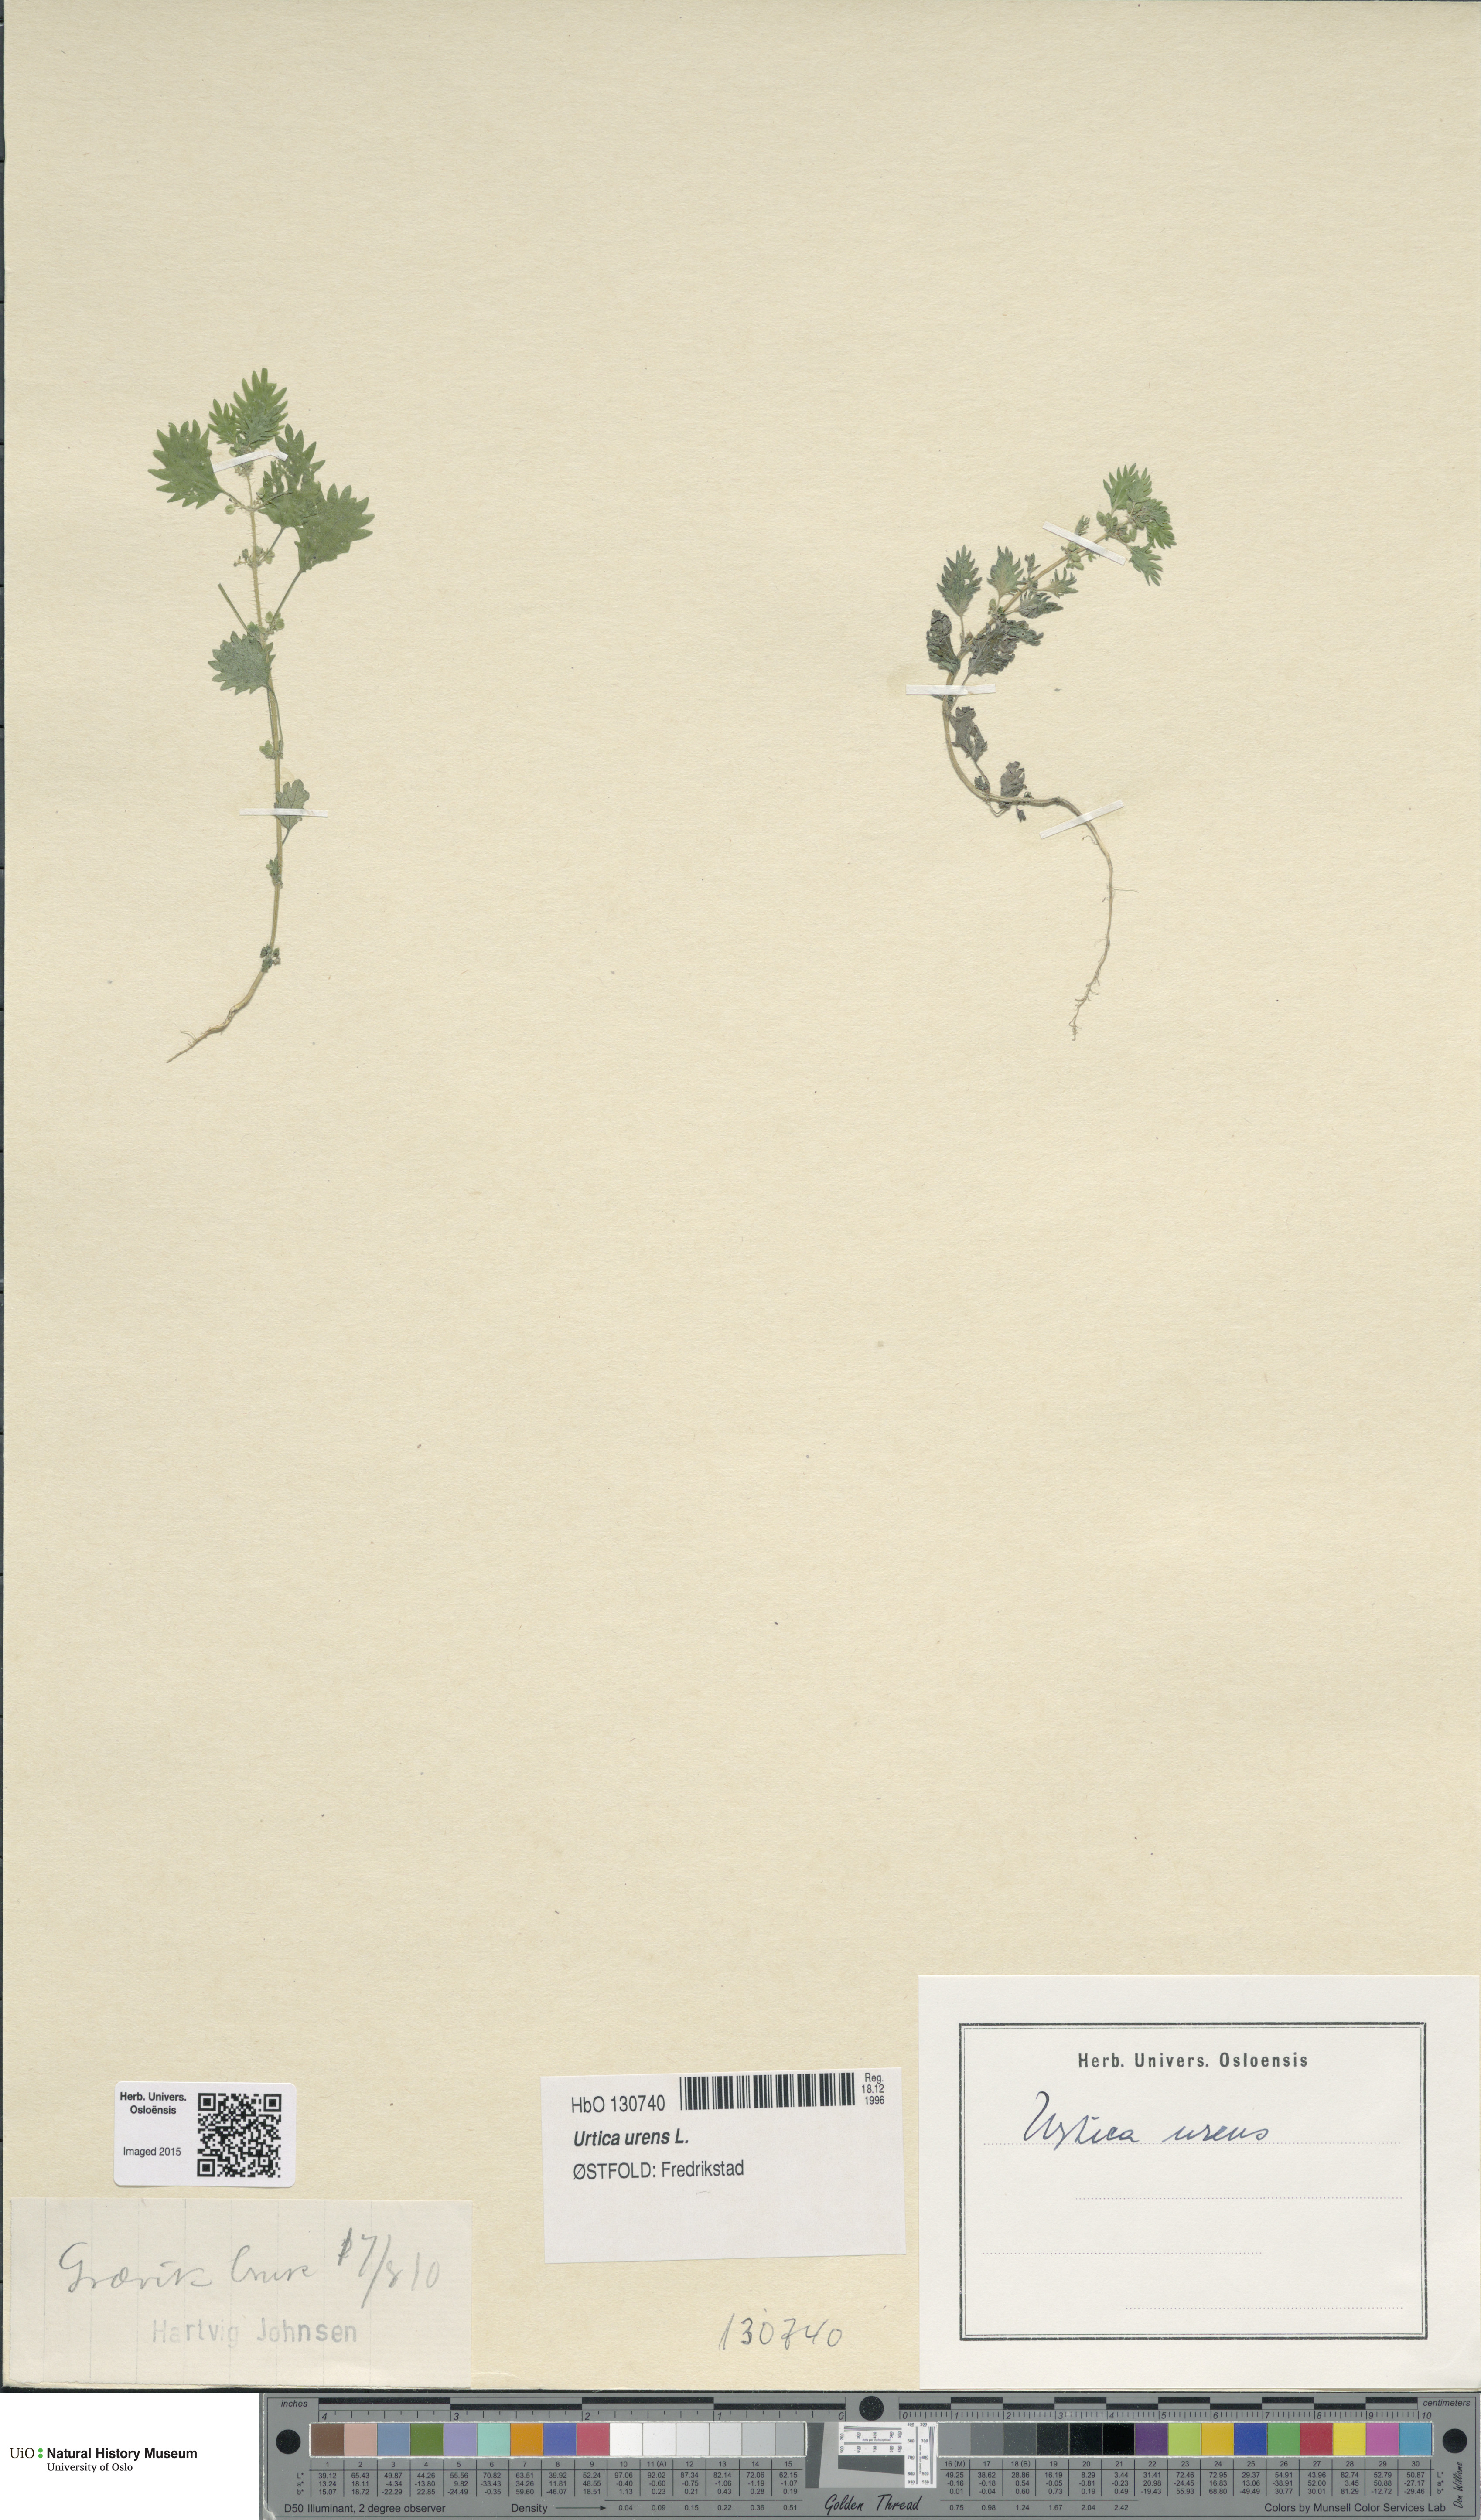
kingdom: Plantae
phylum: Tracheophyta
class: Magnoliopsida
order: Rosales
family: Urticaceae
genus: Urtica
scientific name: Urtica urens
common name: Dwarf nettle
